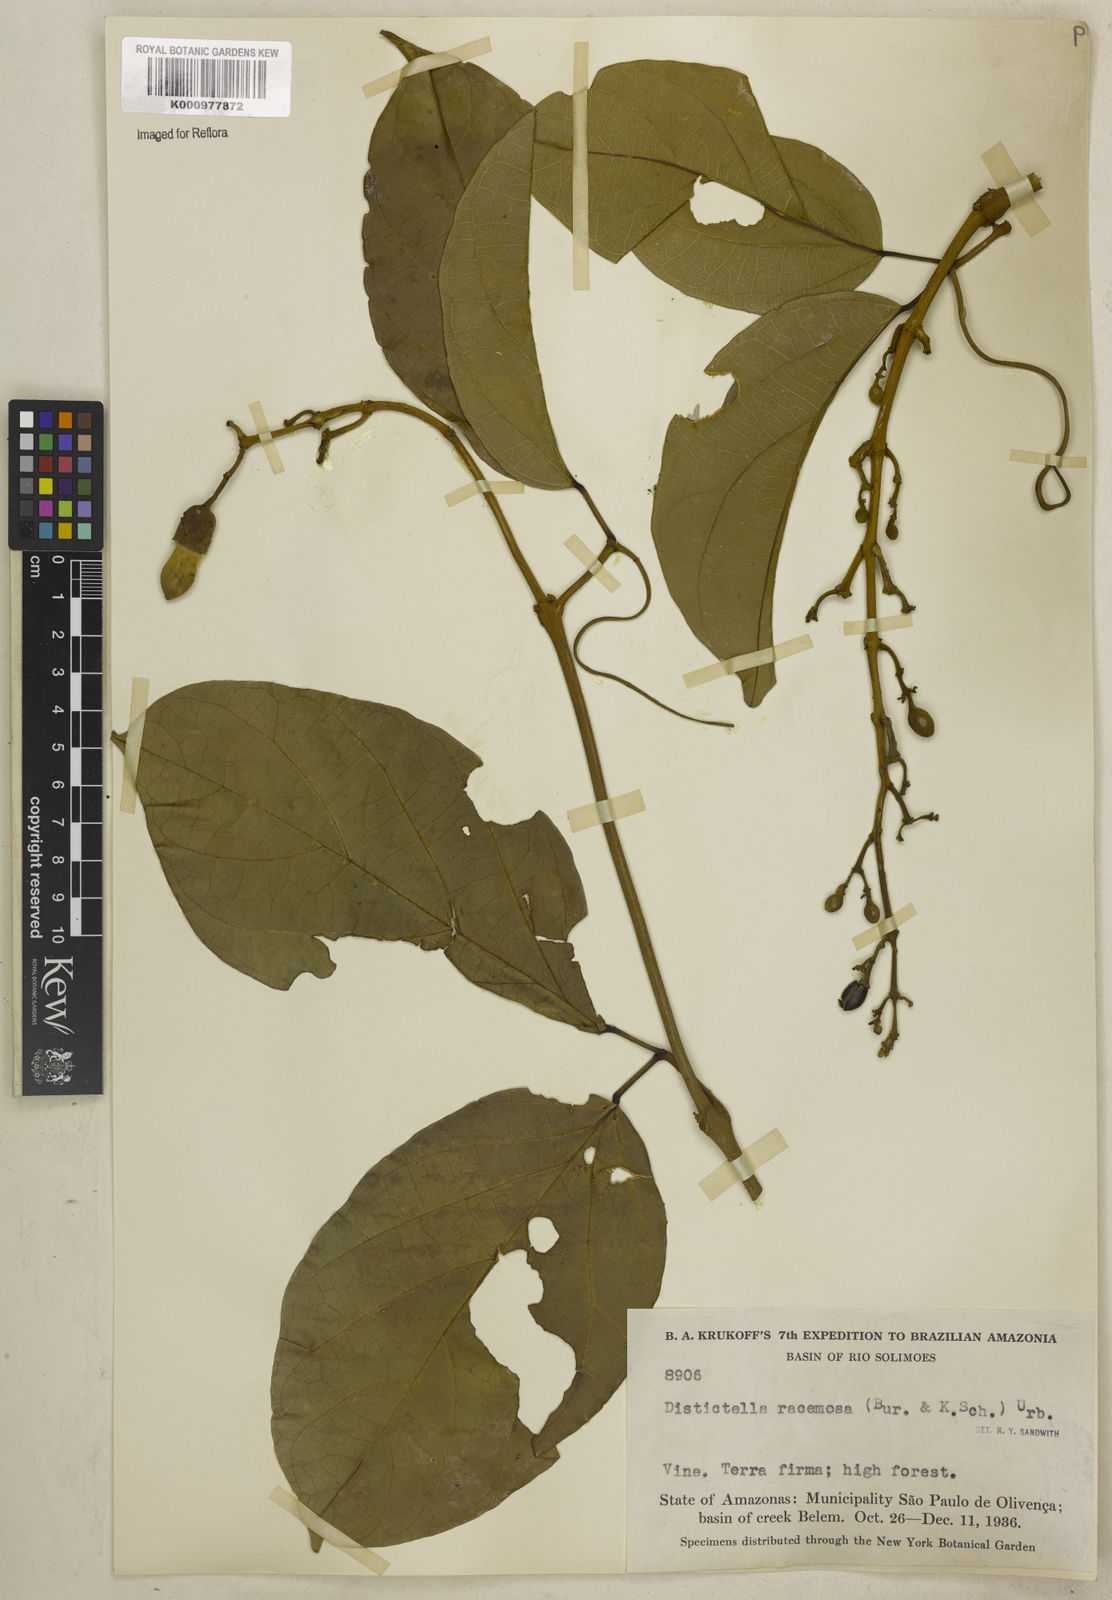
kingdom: Plantae
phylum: Tracheophyta
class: Magnoliopsida
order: Lamiales
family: Bignoniaceae
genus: Amphilophium
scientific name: Amphilophium racemosum
